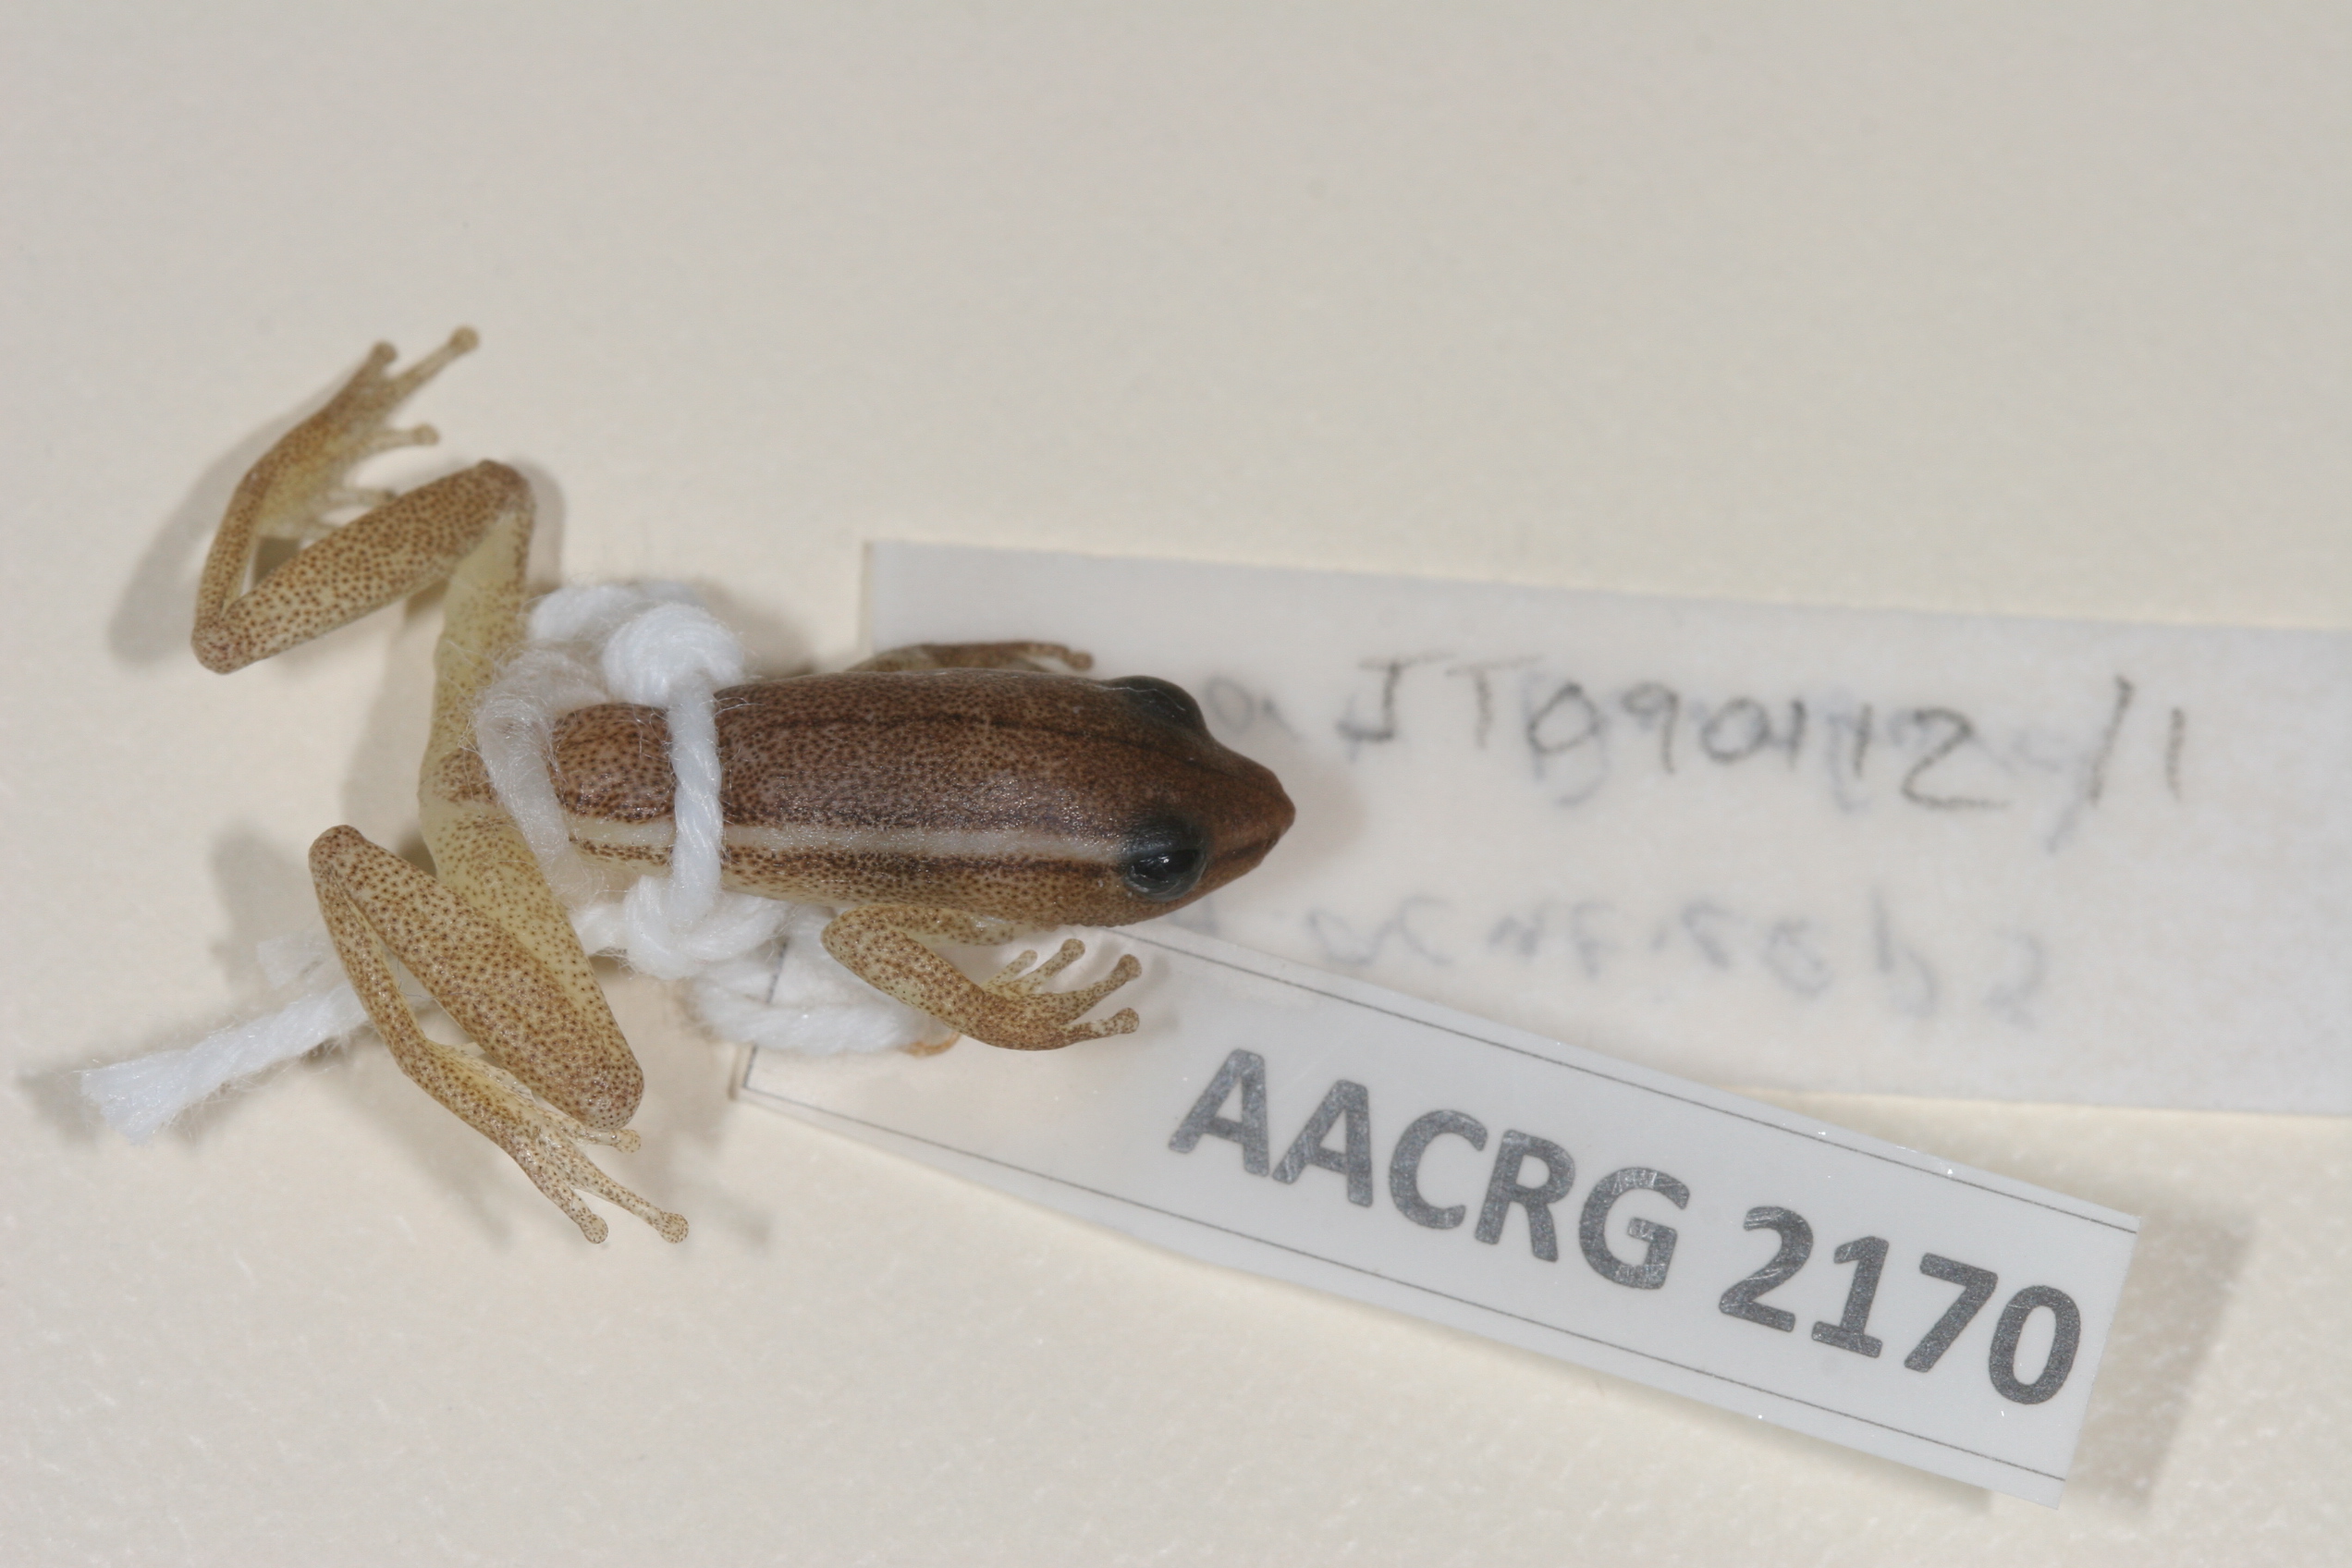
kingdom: Animalia
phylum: Chordata
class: Amphibia
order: Anura
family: Hyperoliidae
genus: Hyperolius
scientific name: Hyperolius poweri
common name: Power's reed frog
